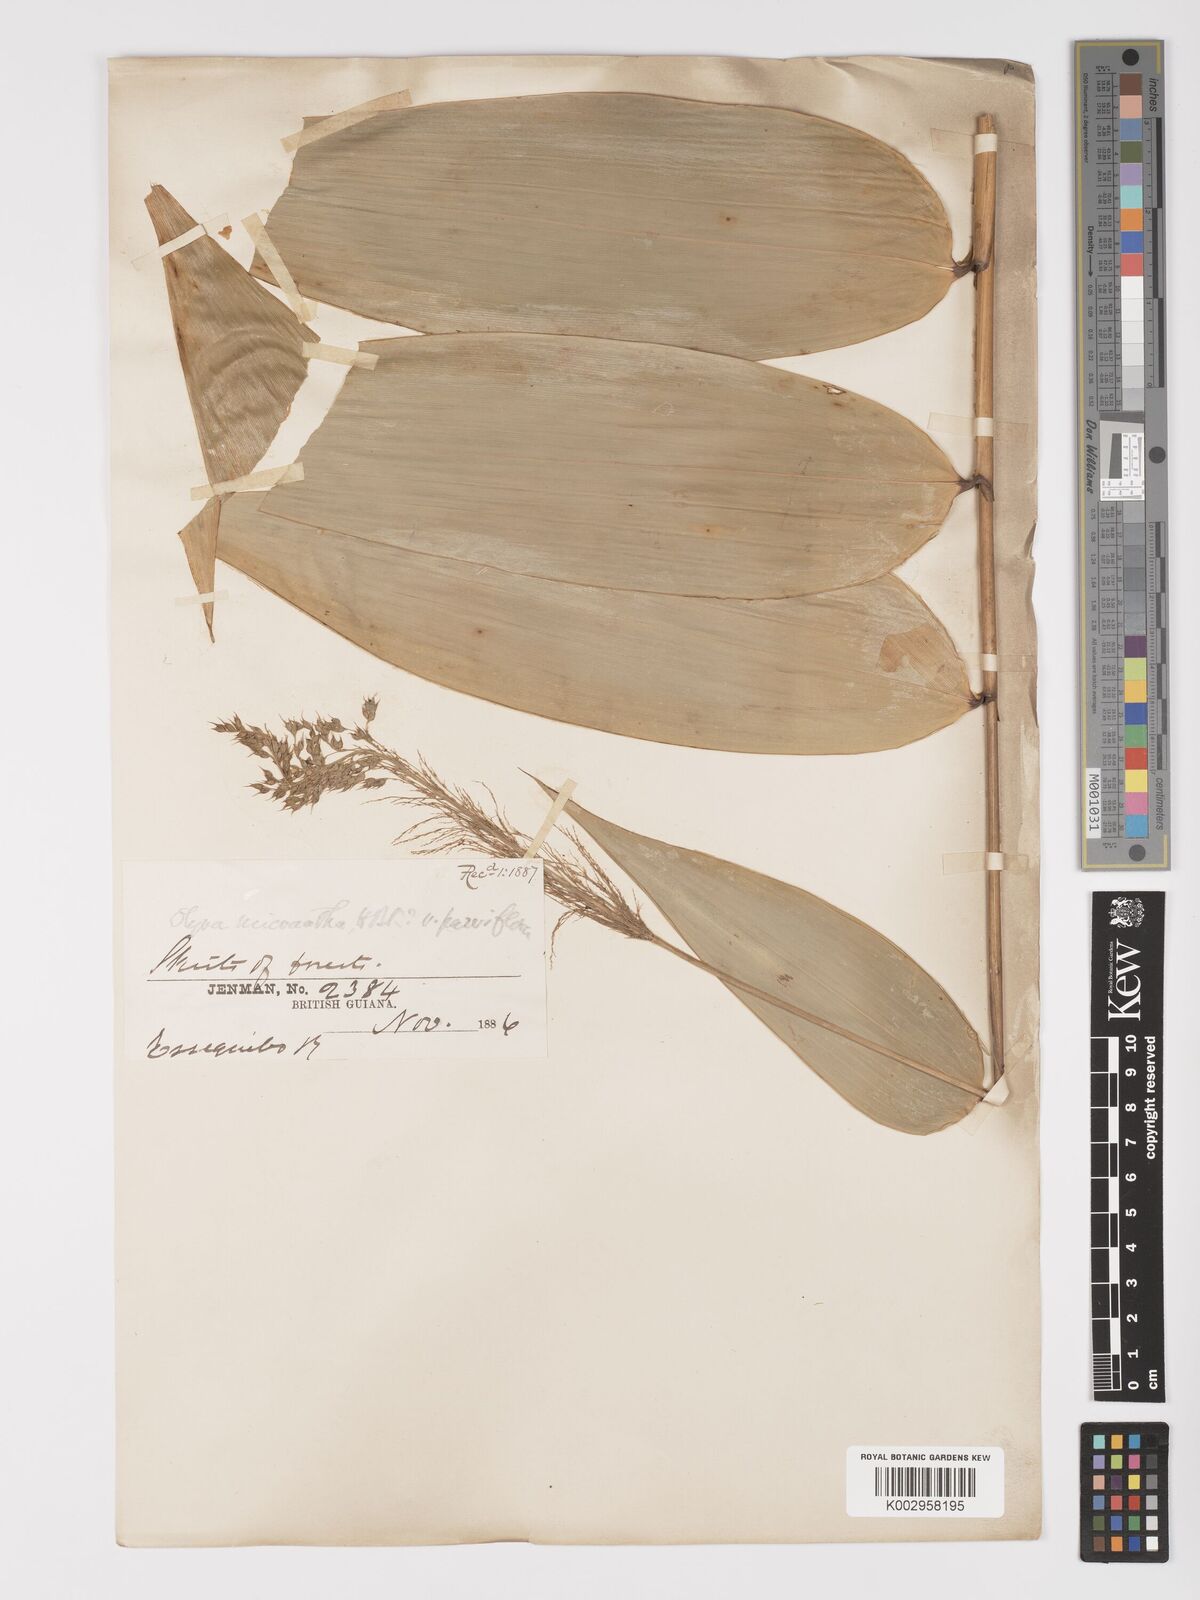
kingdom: Plantae
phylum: Tracheophyta
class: Liliopsida
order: Poales
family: Poaceae
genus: Taquara
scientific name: Taquara micrantha
